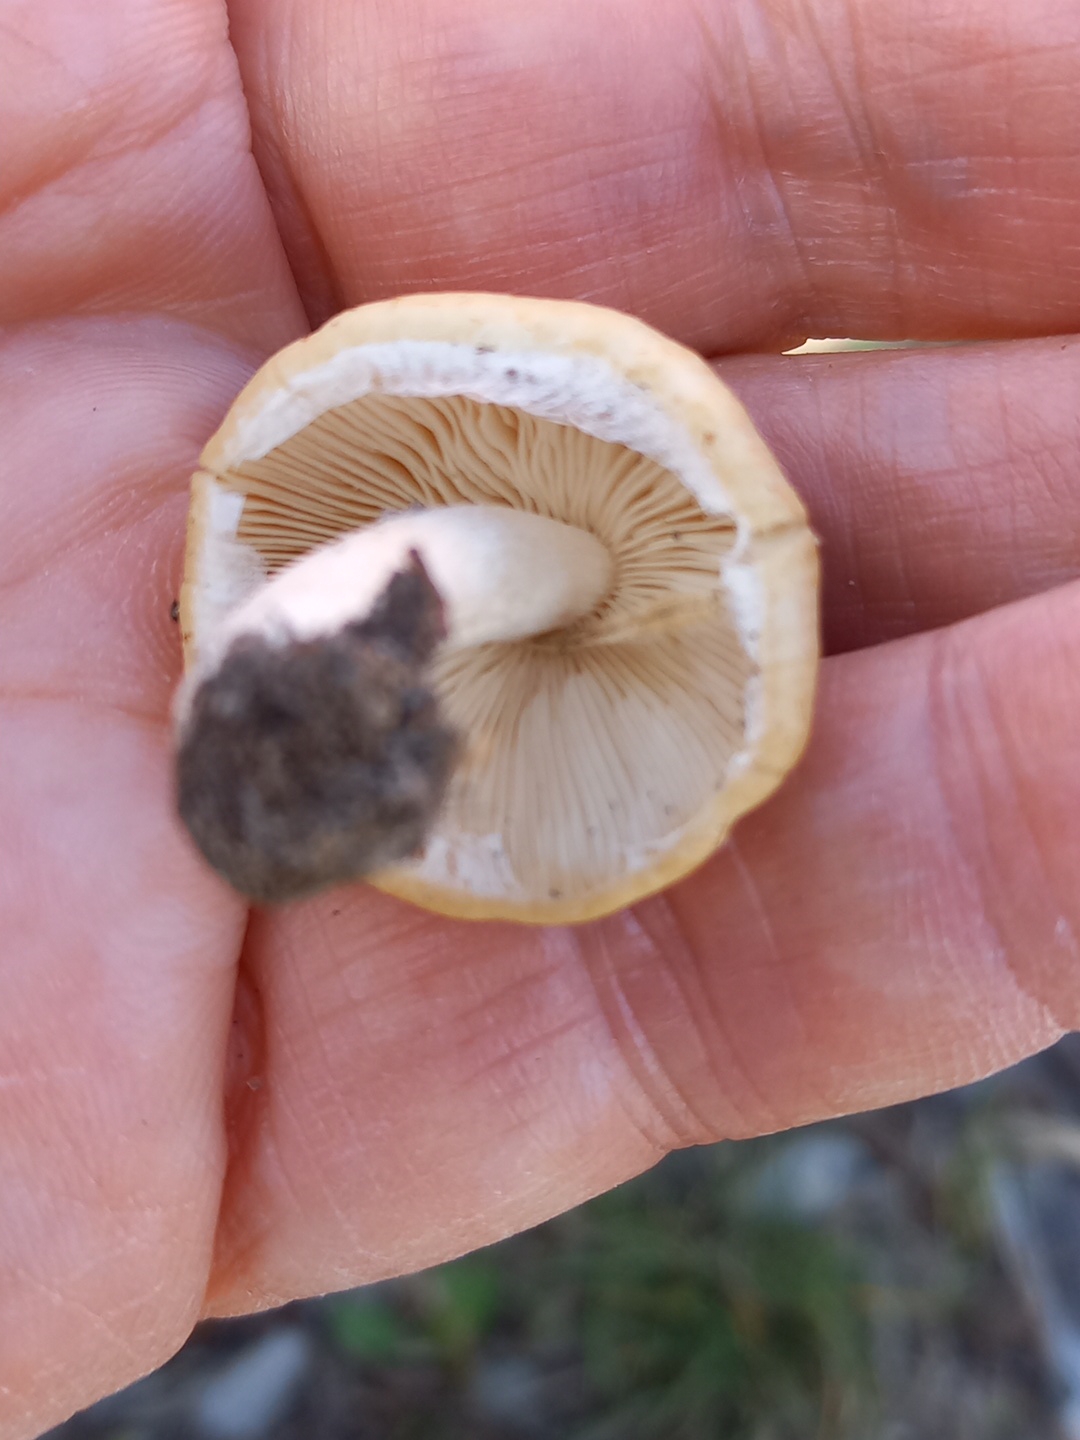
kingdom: Fungi
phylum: Basidiomycota
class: Agaricomycetes
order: Agaricales
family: Psathyrellaceae
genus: Candolleomyces
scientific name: Candolleomyces candolleanus
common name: Candolles mørkhat
